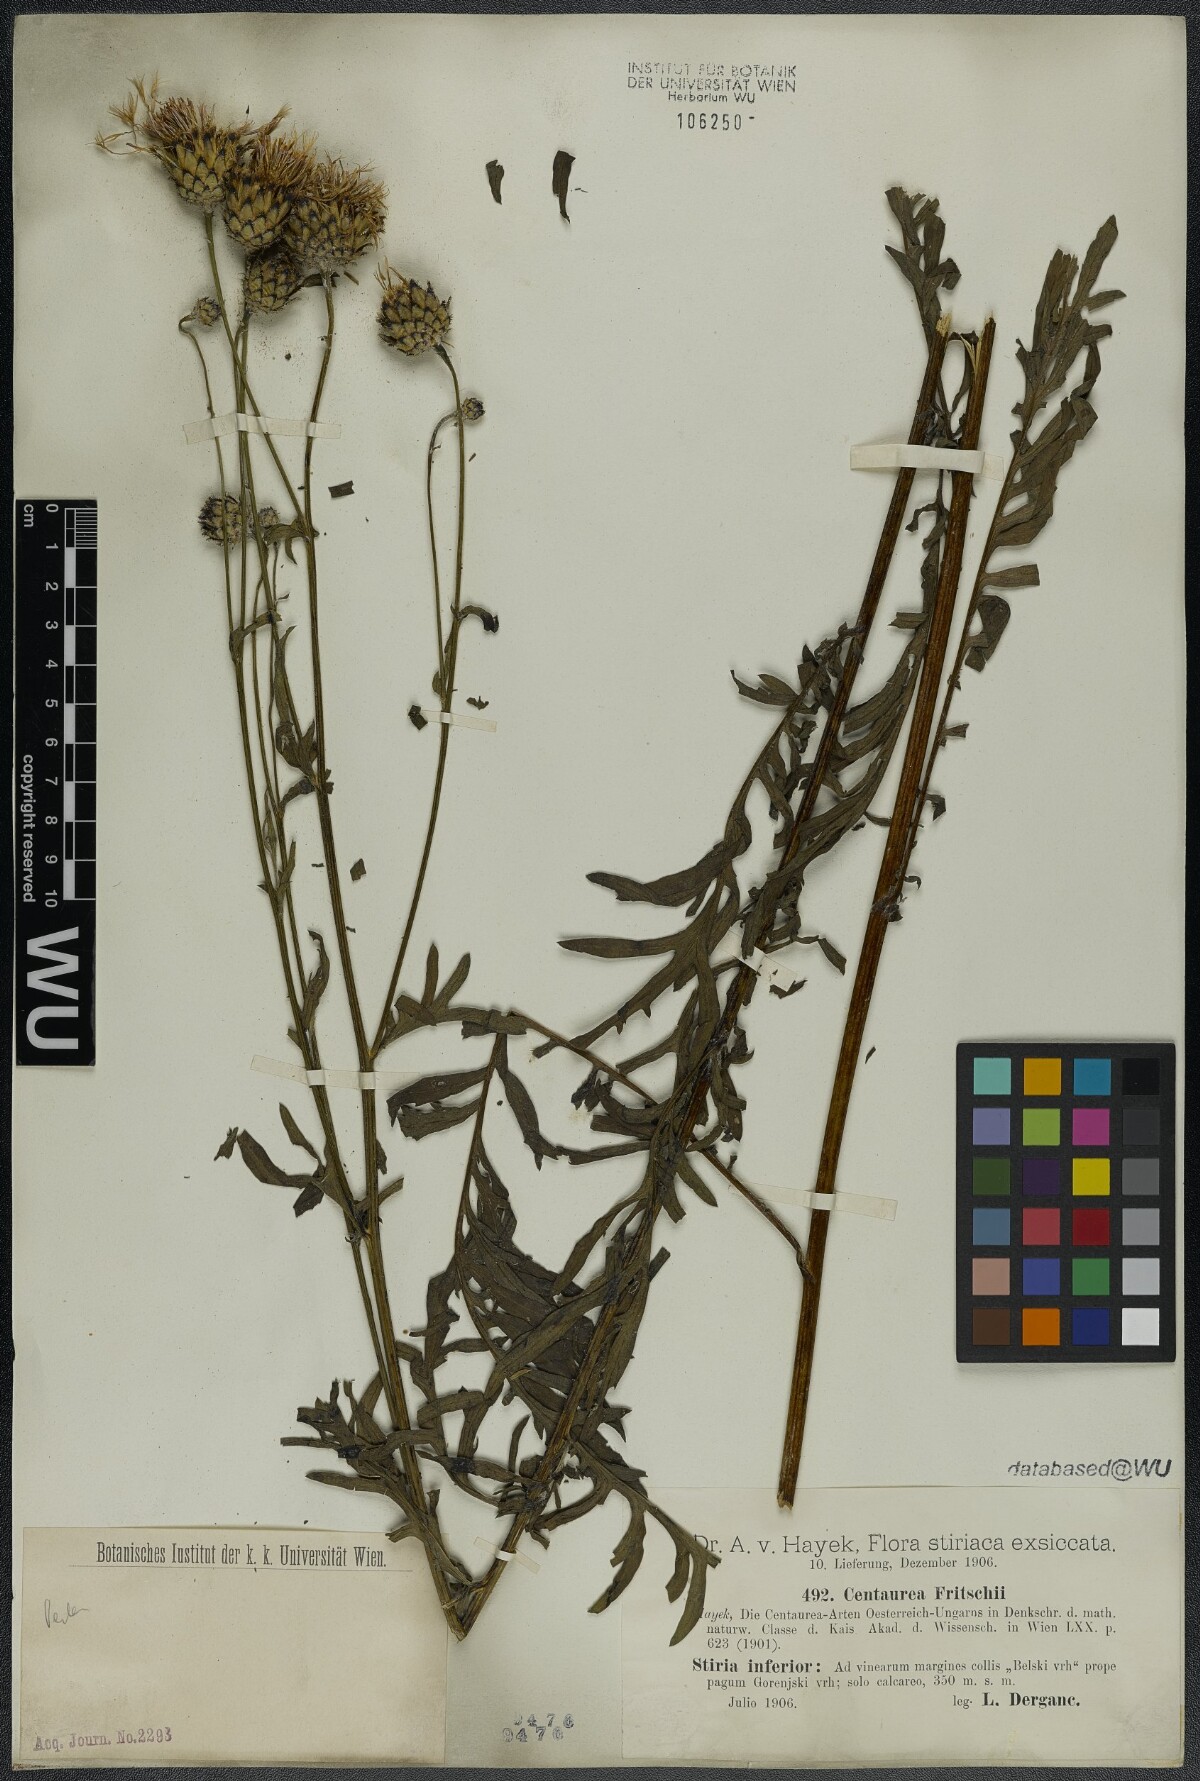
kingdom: Plantae
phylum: Tracheophyta
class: Magnoliopsida
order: Asterales
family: Asteraceae
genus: Centaurea
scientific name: Centaurea scabiosa
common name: Greater knapweed
